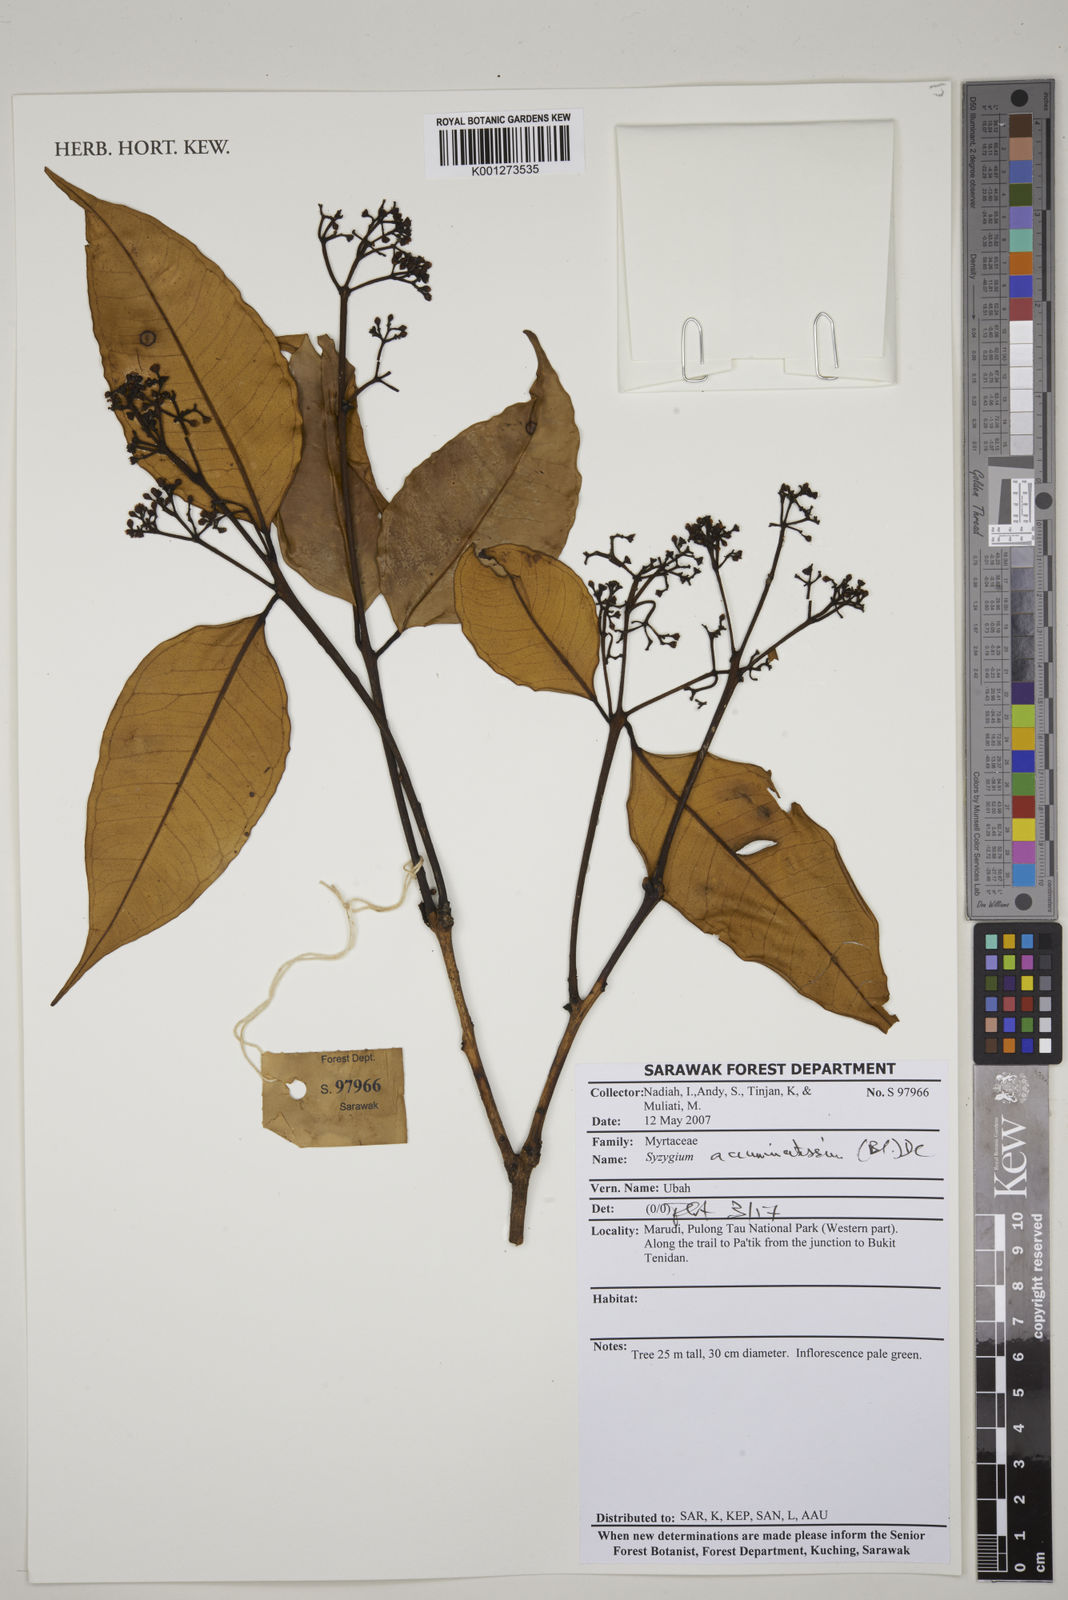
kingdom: Plantae
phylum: Tracheophyta
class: Magnoliopsida
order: Myrtales
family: Myrtaceae
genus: Syzygium
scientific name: Syzygium acuminatissimum
